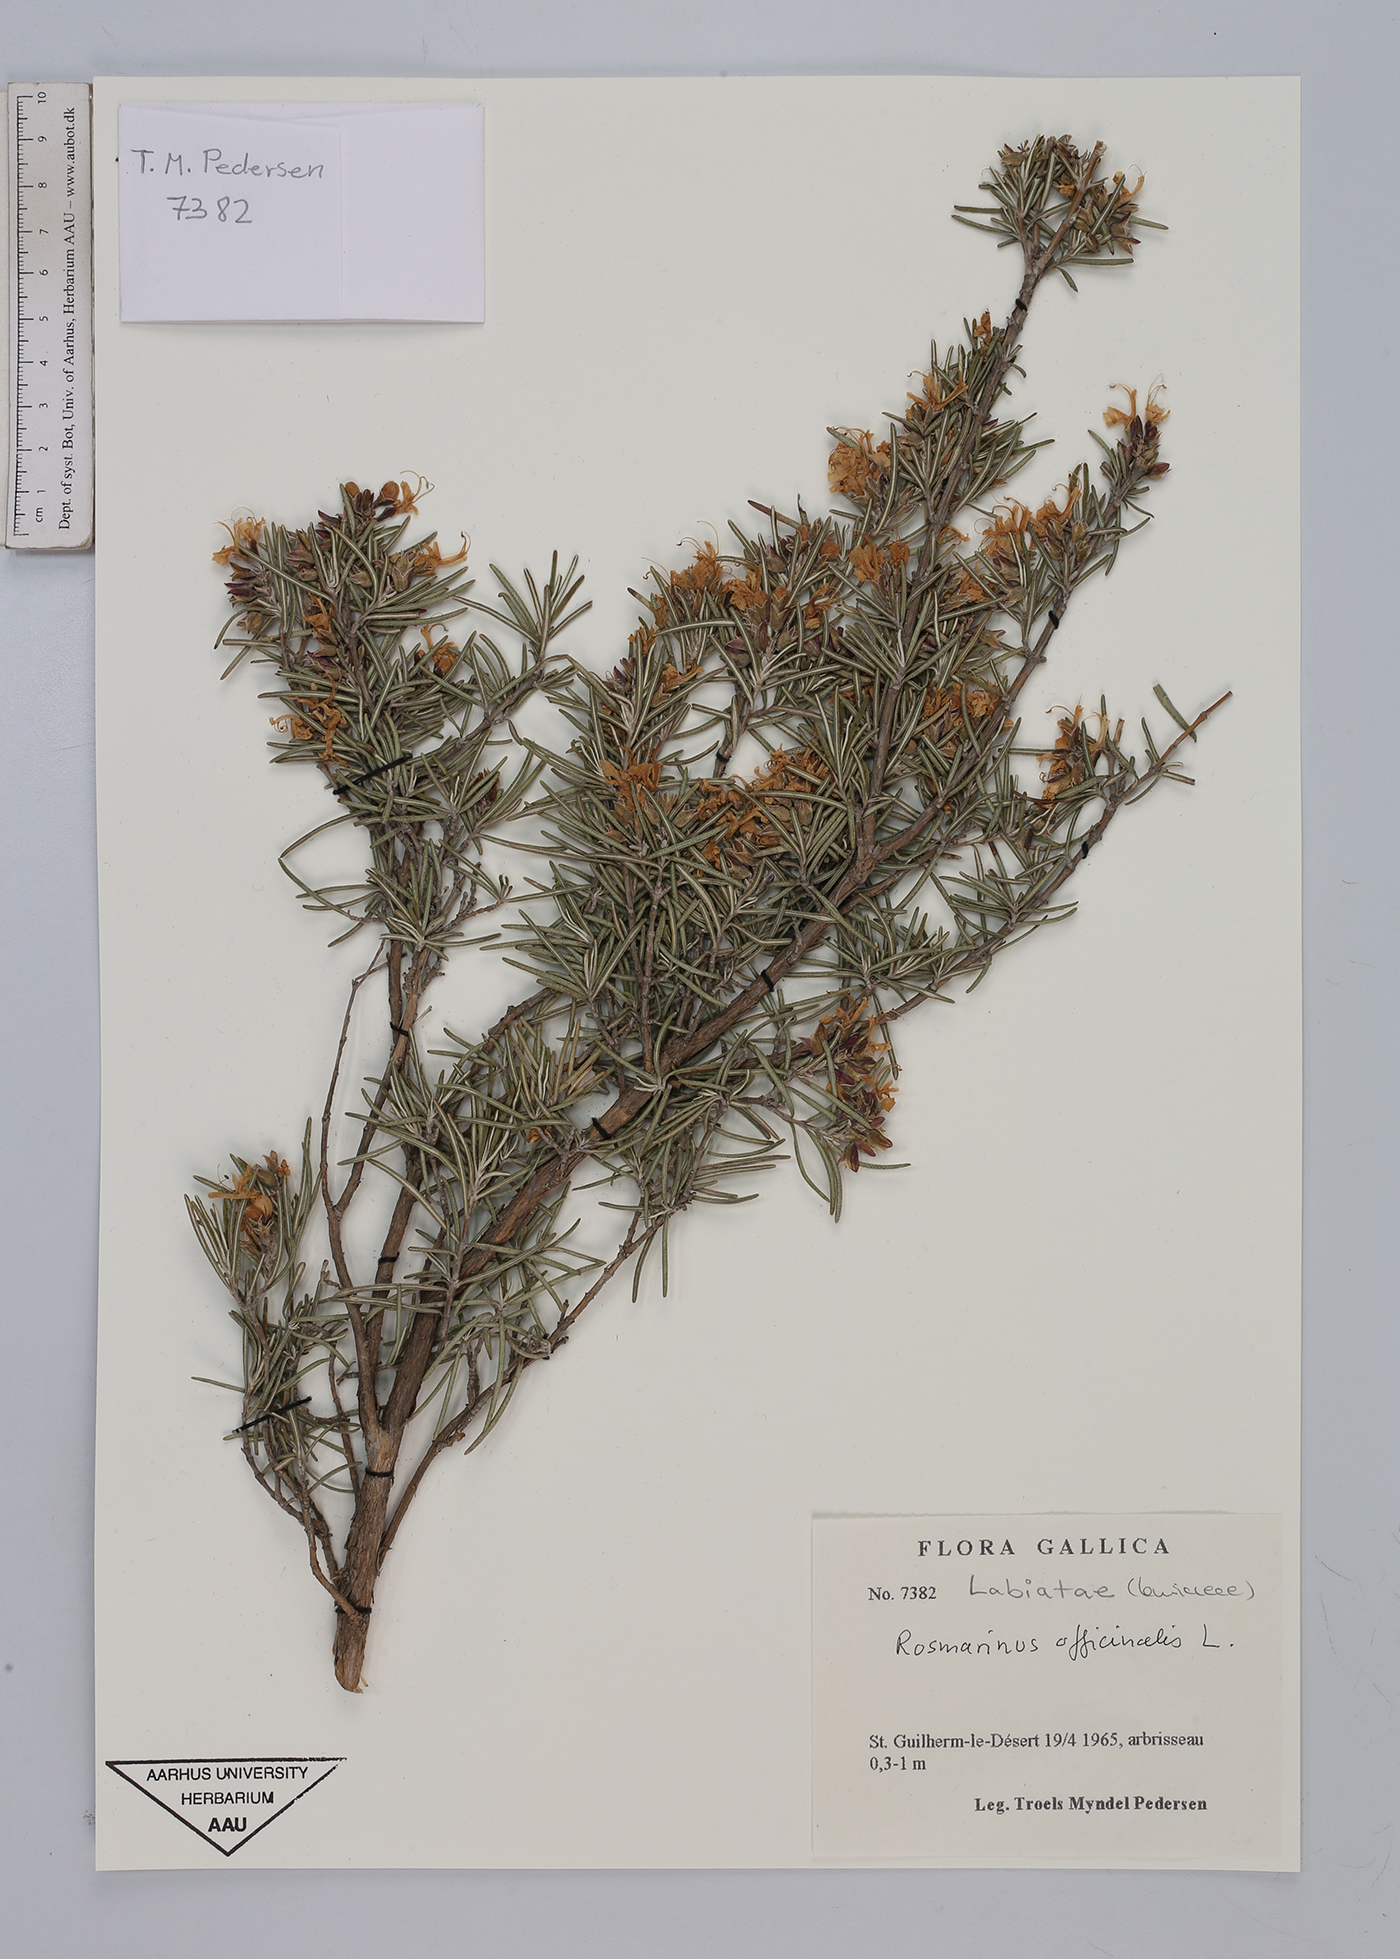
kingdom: Plantae
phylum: Tracheophyta
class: Magnoliopsida
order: Lamiales
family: Lamiaceae
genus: Salvia
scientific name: Salvia rosmarinus
